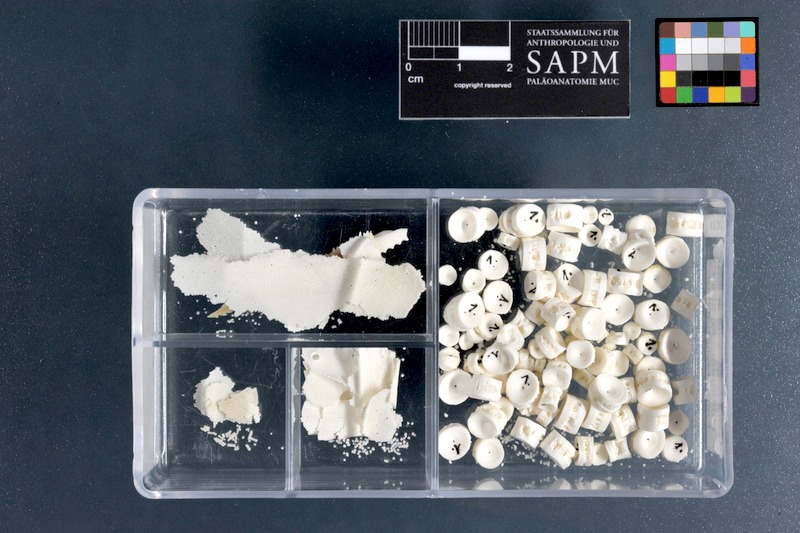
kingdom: Animalia
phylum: Chordata
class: Elasmobranchii
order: Myliobatiformes
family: Myliobatidae
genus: Rhinoptera
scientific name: Rhinoptera jayakari
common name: Oman cownose ray
